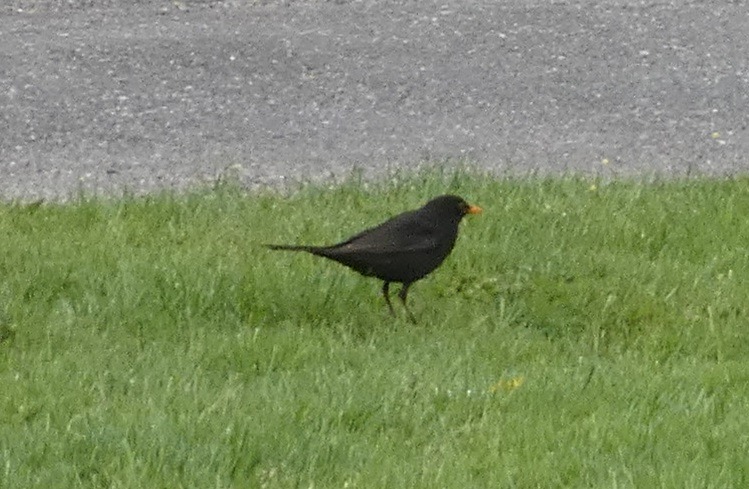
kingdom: Animalia
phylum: Chordata
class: Aves
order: Passeriformes
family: Turdidae
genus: Turdus
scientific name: Turdus merula
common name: Solsort
